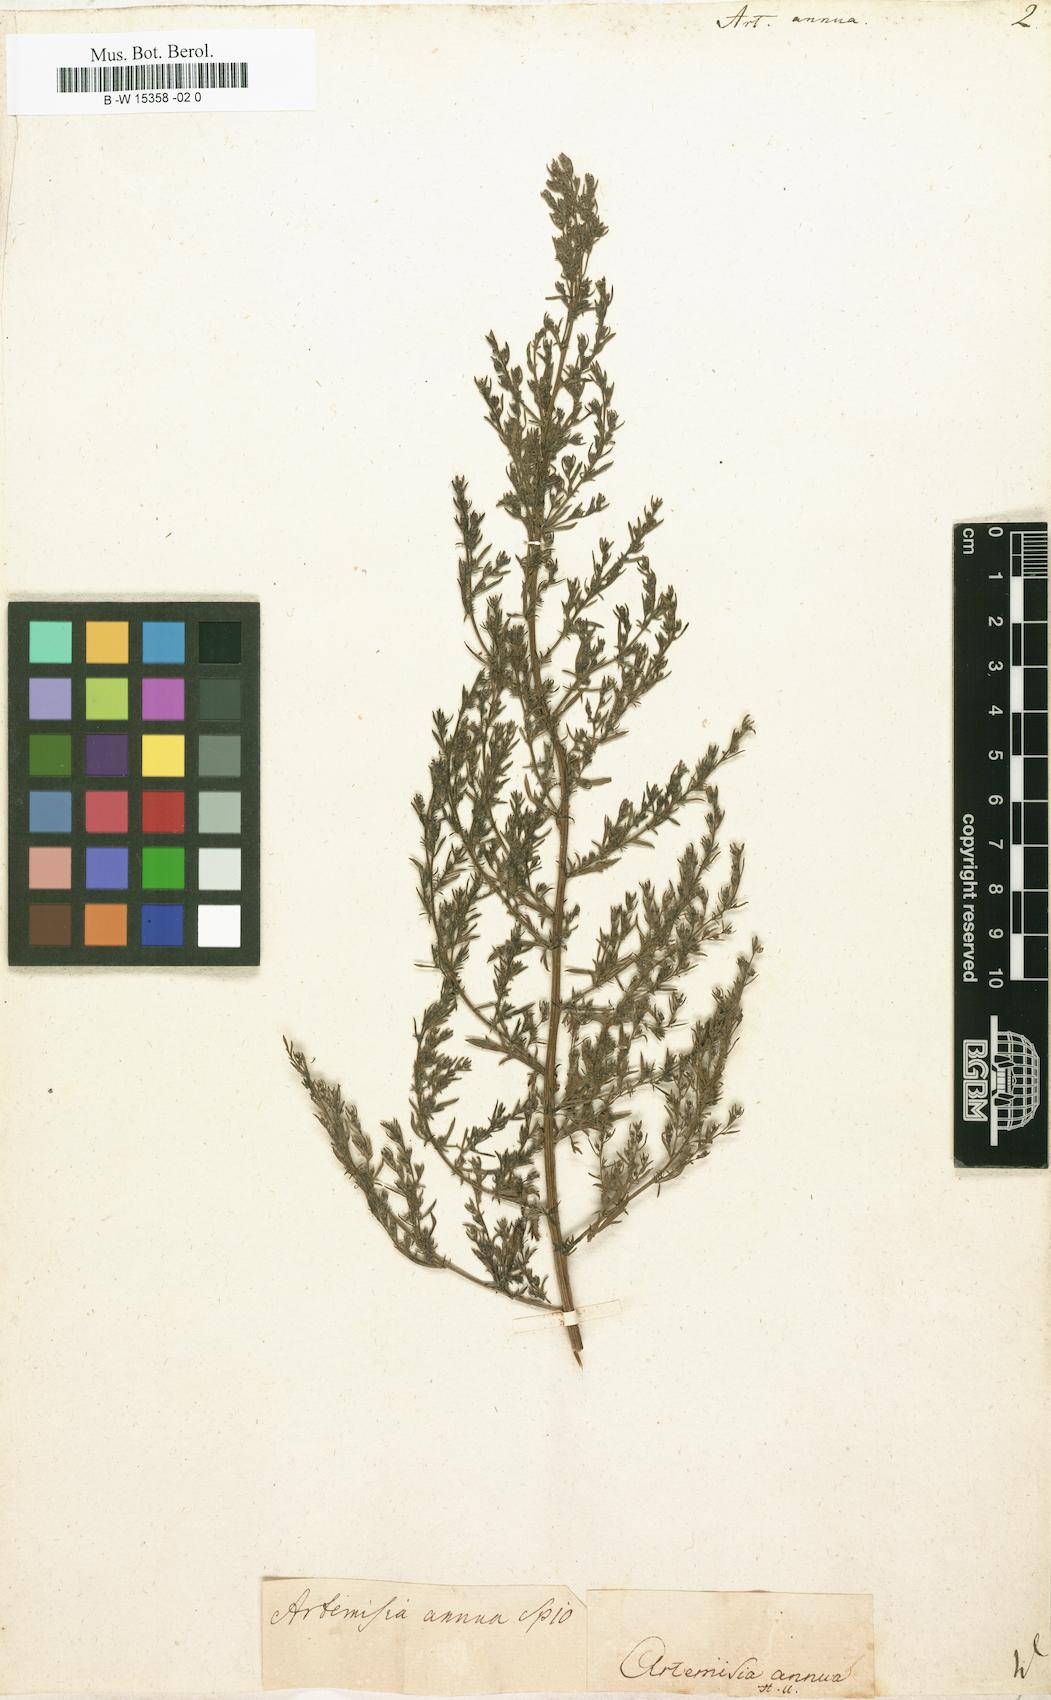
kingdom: Plantae
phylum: Tracheophyta
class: Magnoliopsida
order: Asterales
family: Asteraceae
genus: Artemisia
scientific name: Artemisia annua
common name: Sweet sagewort
